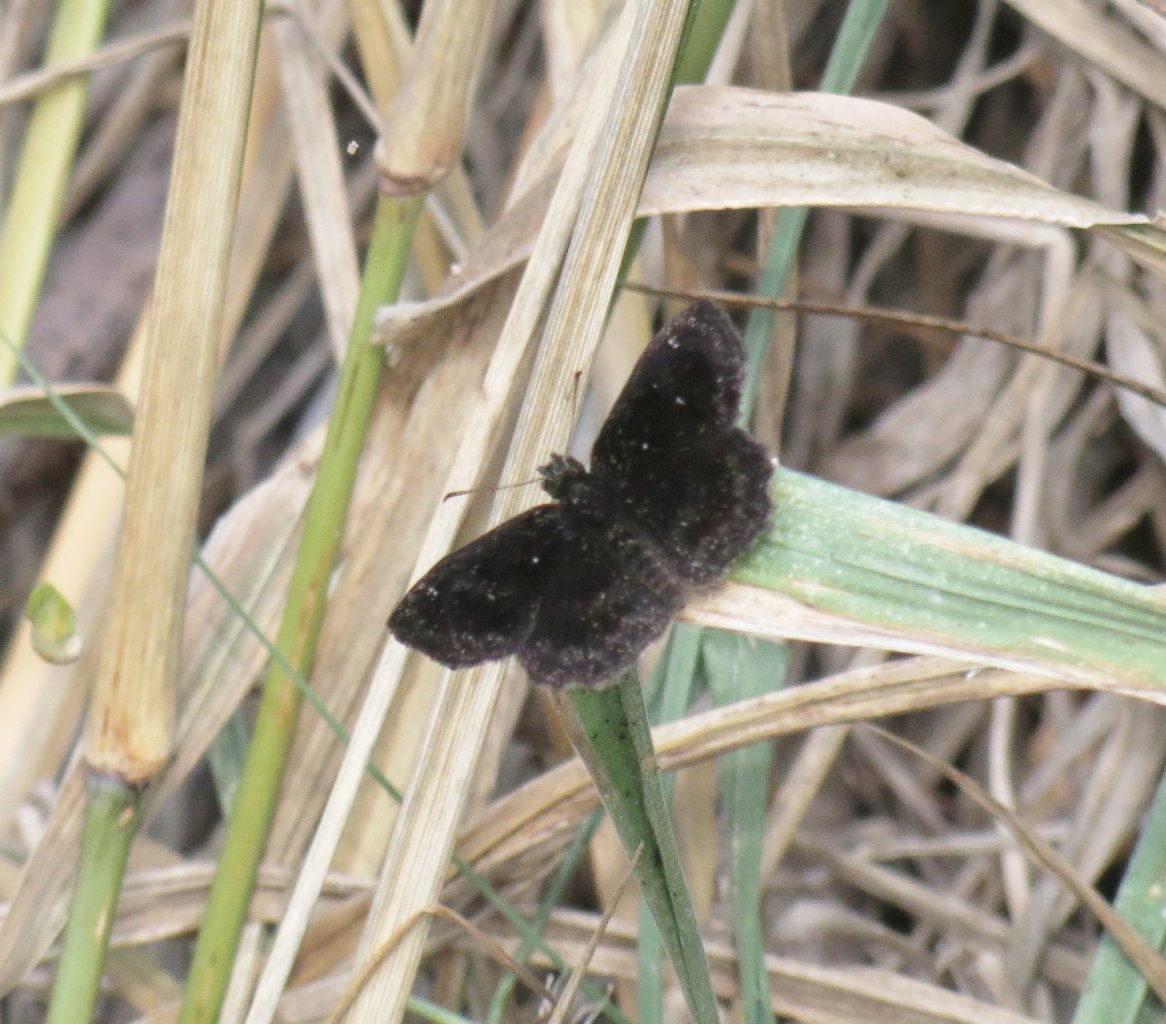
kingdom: Animalia
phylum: Arthropoda
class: Insecta
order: Lepidoptera
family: Hesperiidae
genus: Staphylus
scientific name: Staphylus mazans
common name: Mazans Scallopwing
